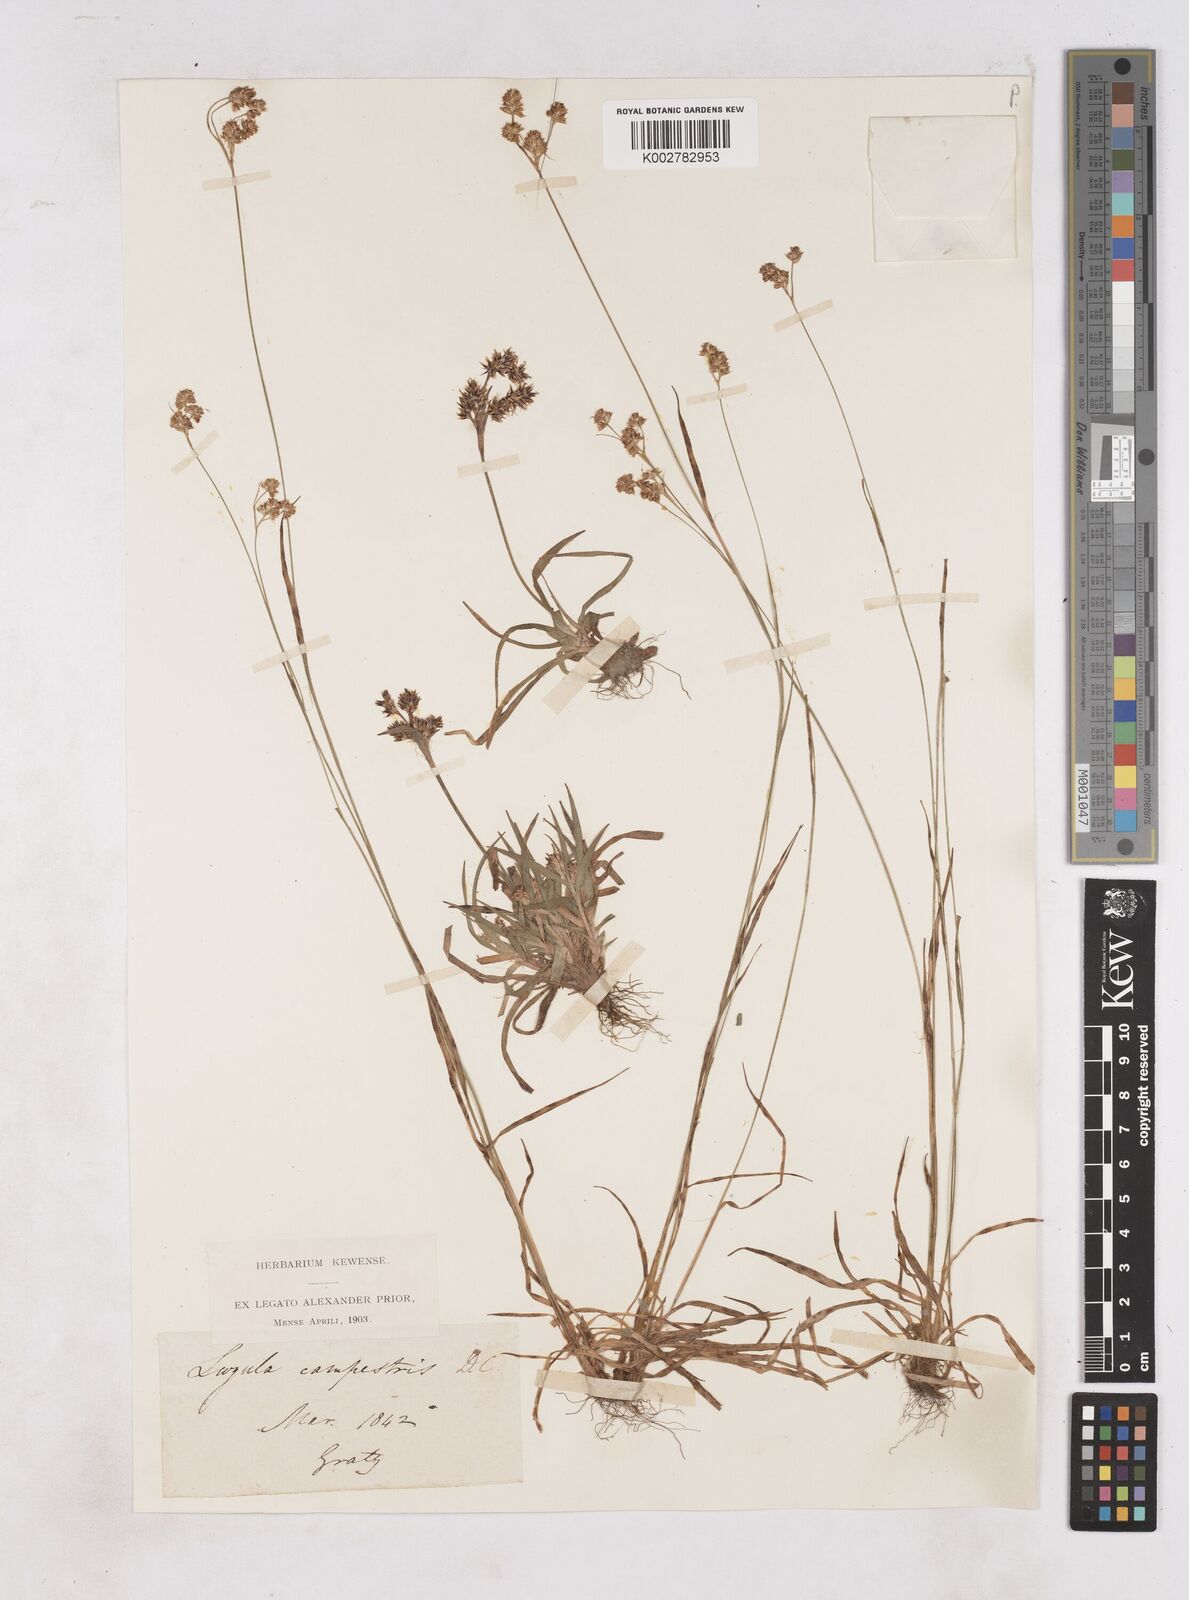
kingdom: Plantae
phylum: Tracheophyta
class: Liliopsida
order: Poales
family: Juncaceae
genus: Luzula
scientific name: Luzula campestris
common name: Field wood-rush
